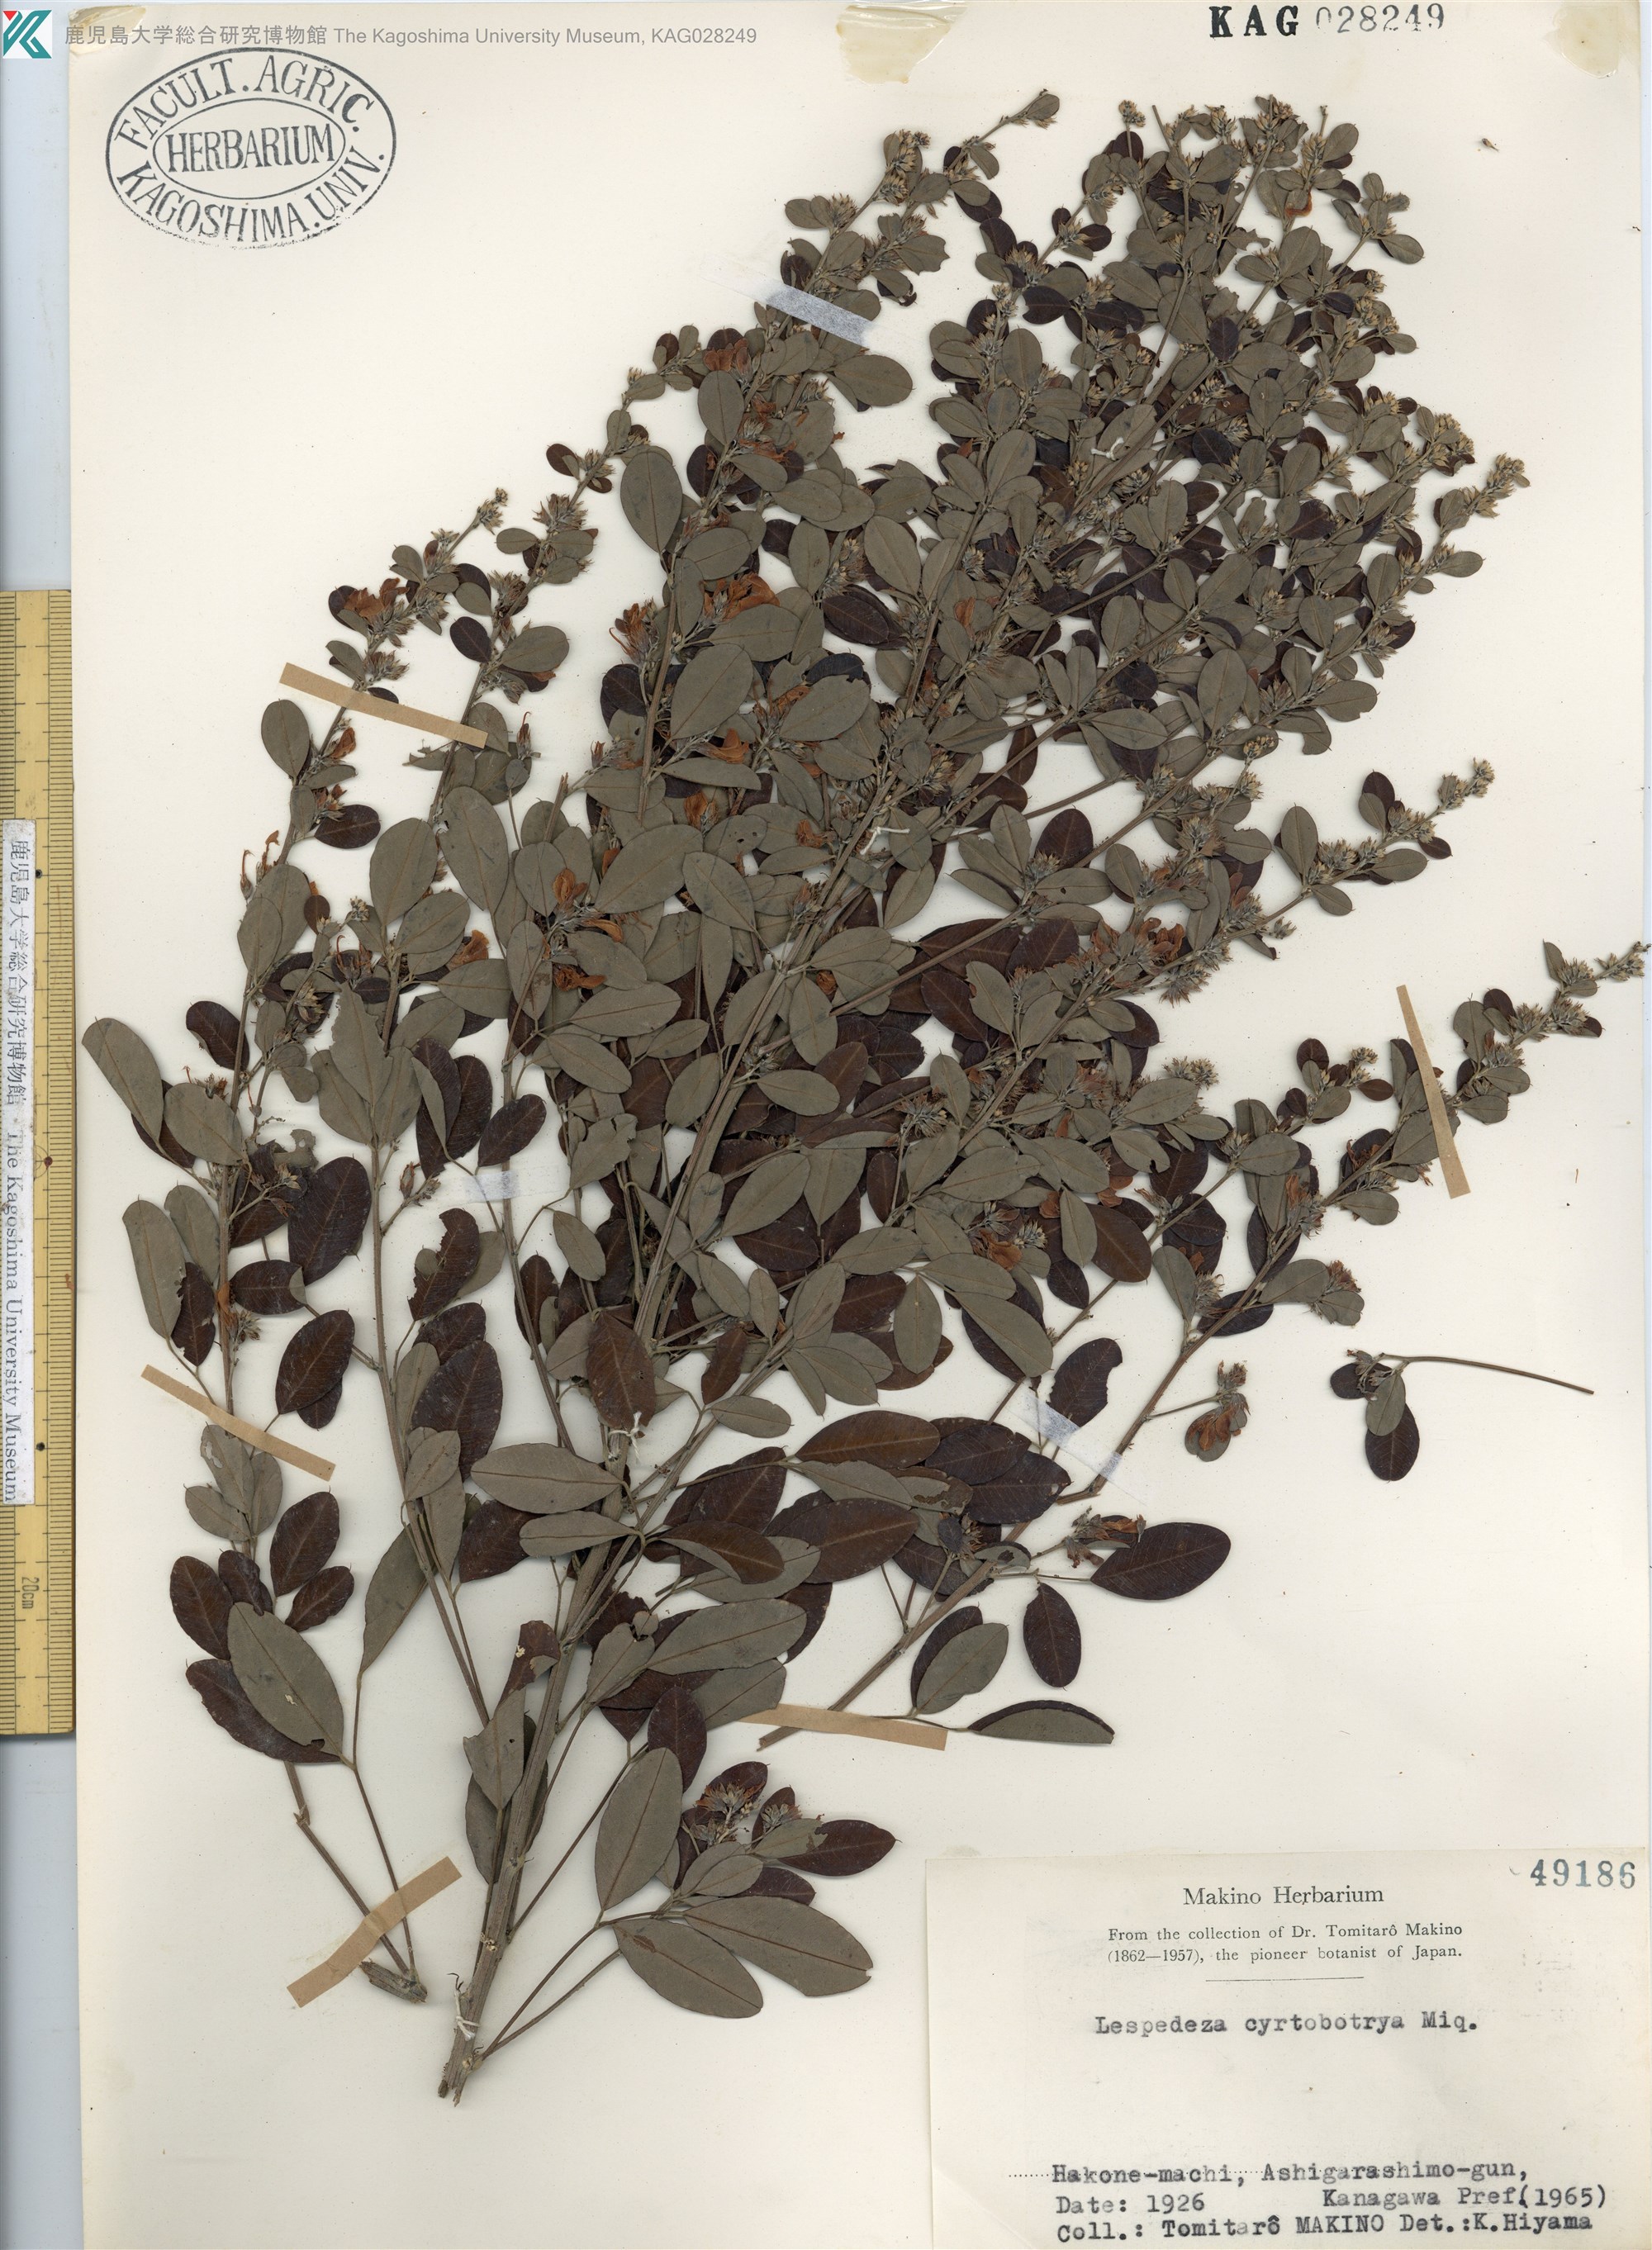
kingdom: Plantae
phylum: Tracheophyta
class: Magnoliopsida
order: Fabales
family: Fabaceae
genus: Lespedeza
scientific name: Lespedeza cyrtobotrya
